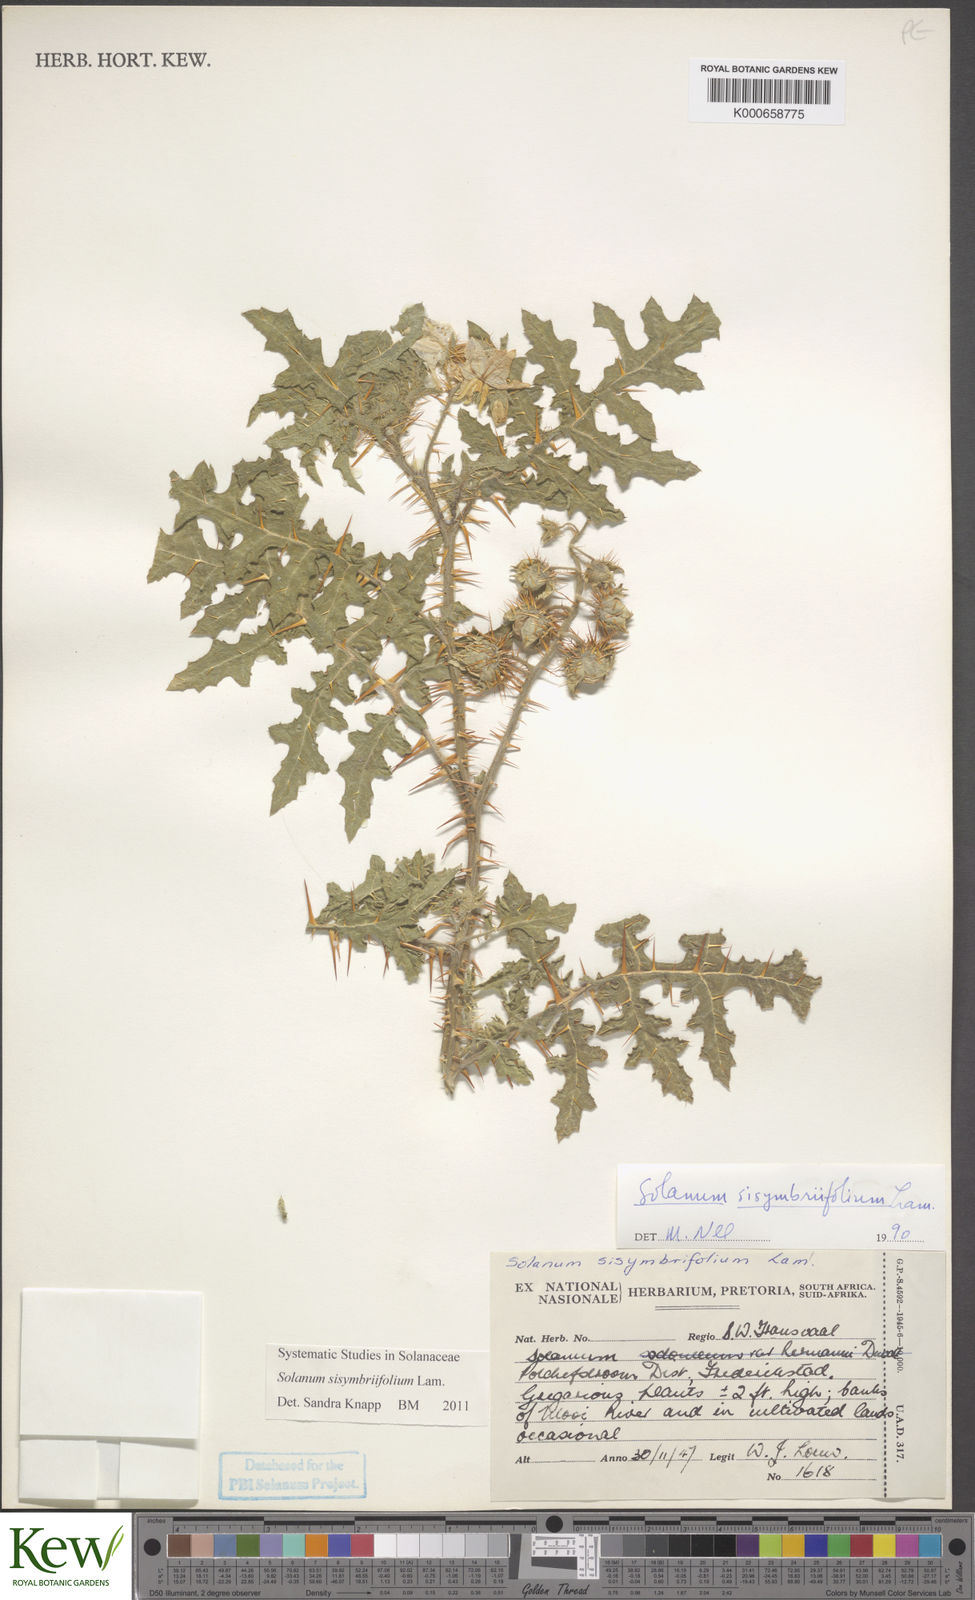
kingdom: Plantae
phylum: Tracheophyta
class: Magnoliopsida
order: Solanales
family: Solanaceae
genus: Solanum
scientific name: Solanum sisymbriifolium
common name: Red buffalo-bur
